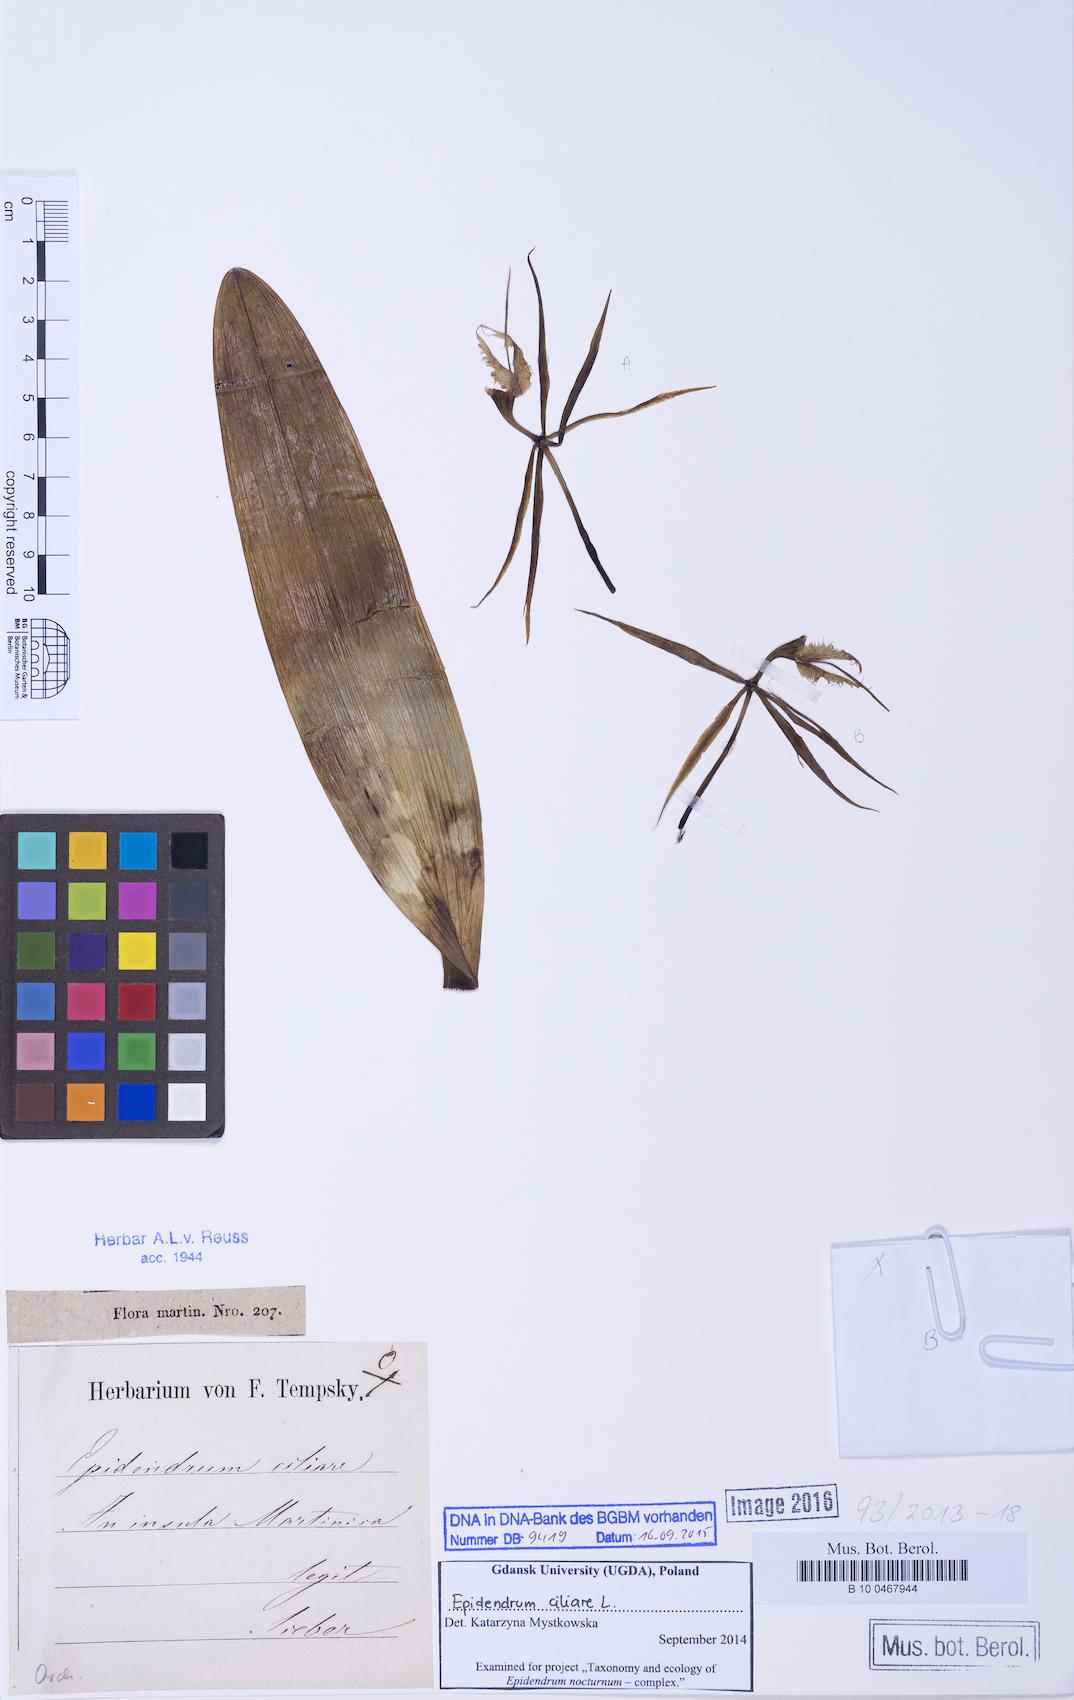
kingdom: Plantae
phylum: Tracheophyta
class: Liliopsida
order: Asparagales
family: Orchidaceae
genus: Epidendrum
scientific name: Epidendrum ciliare
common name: Eyelash orchid
